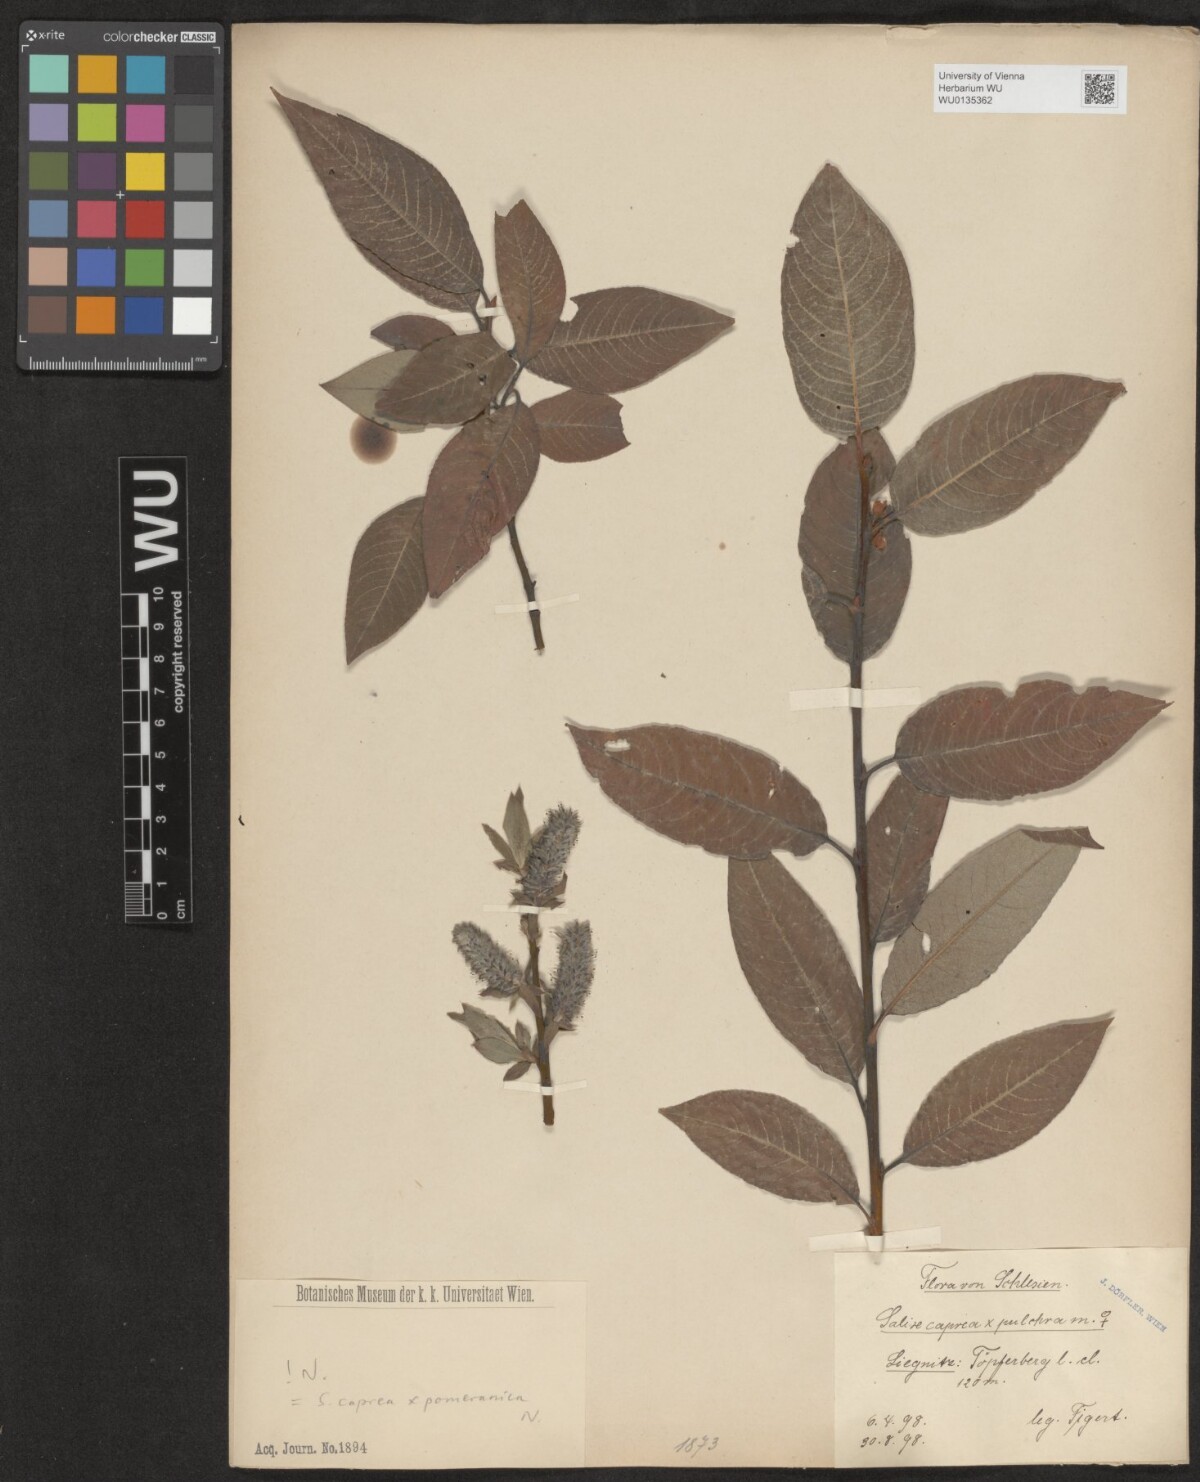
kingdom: Plantae
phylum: Tracheophyta
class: Magnoliopsida
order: Malpighiales
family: Salicaceae
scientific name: Salicaceae
